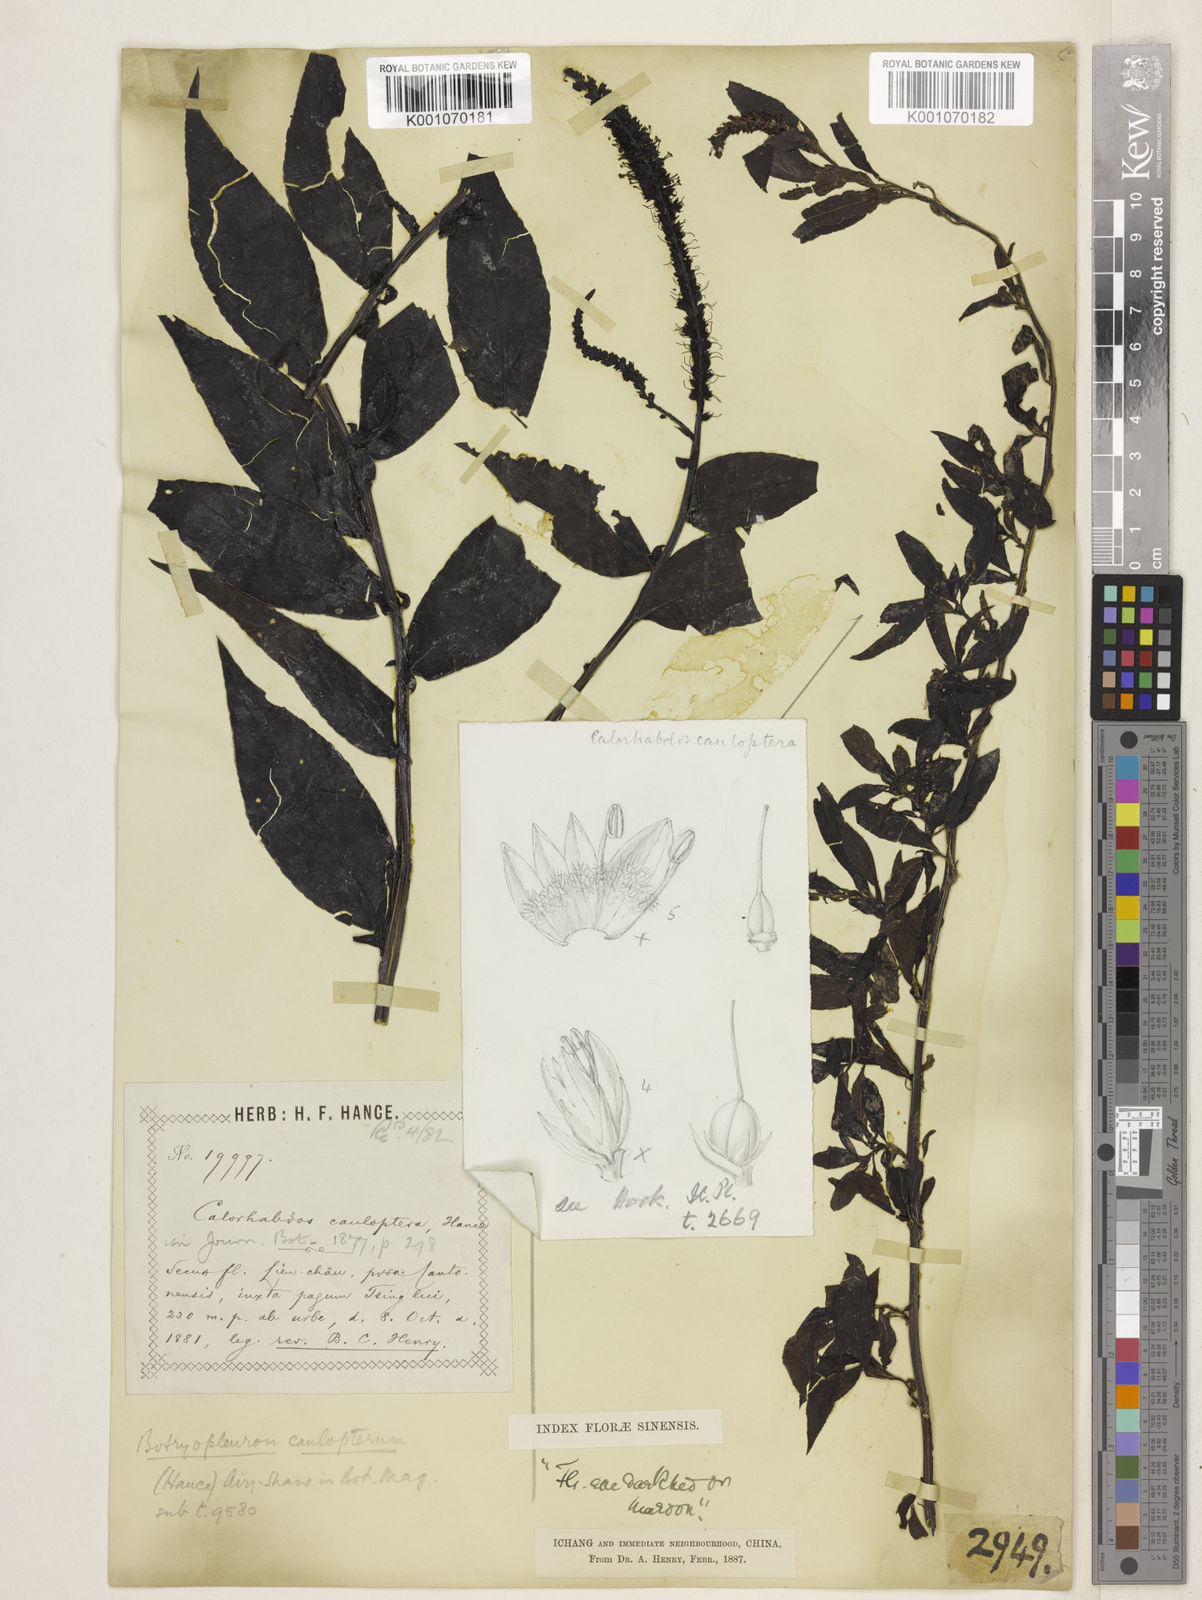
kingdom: Plantae
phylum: Tracheophyta
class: Magnoliopsida
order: Lamiales
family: Plantaginaceae
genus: Veronicastrum
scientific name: Veronicastrum caulopterum
